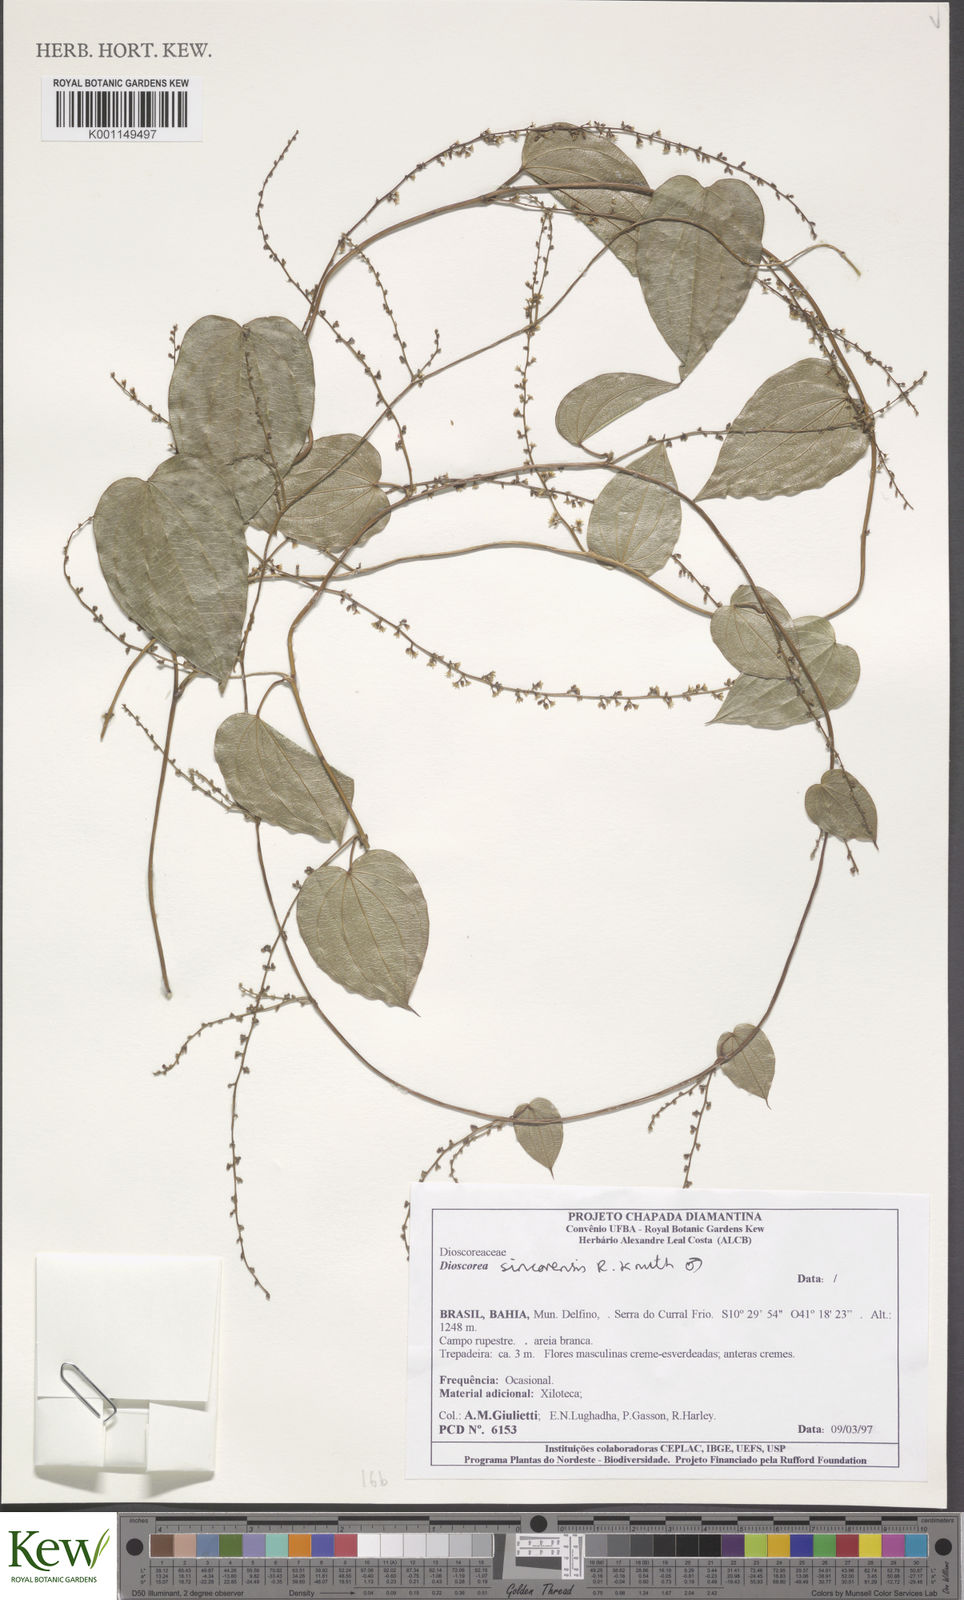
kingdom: Plantae
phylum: Tracheophyta
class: Liliopsida
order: Dioscoreales
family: Dioscoreaceae
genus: Dioscorea
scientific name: Dioscorea sincorensis
